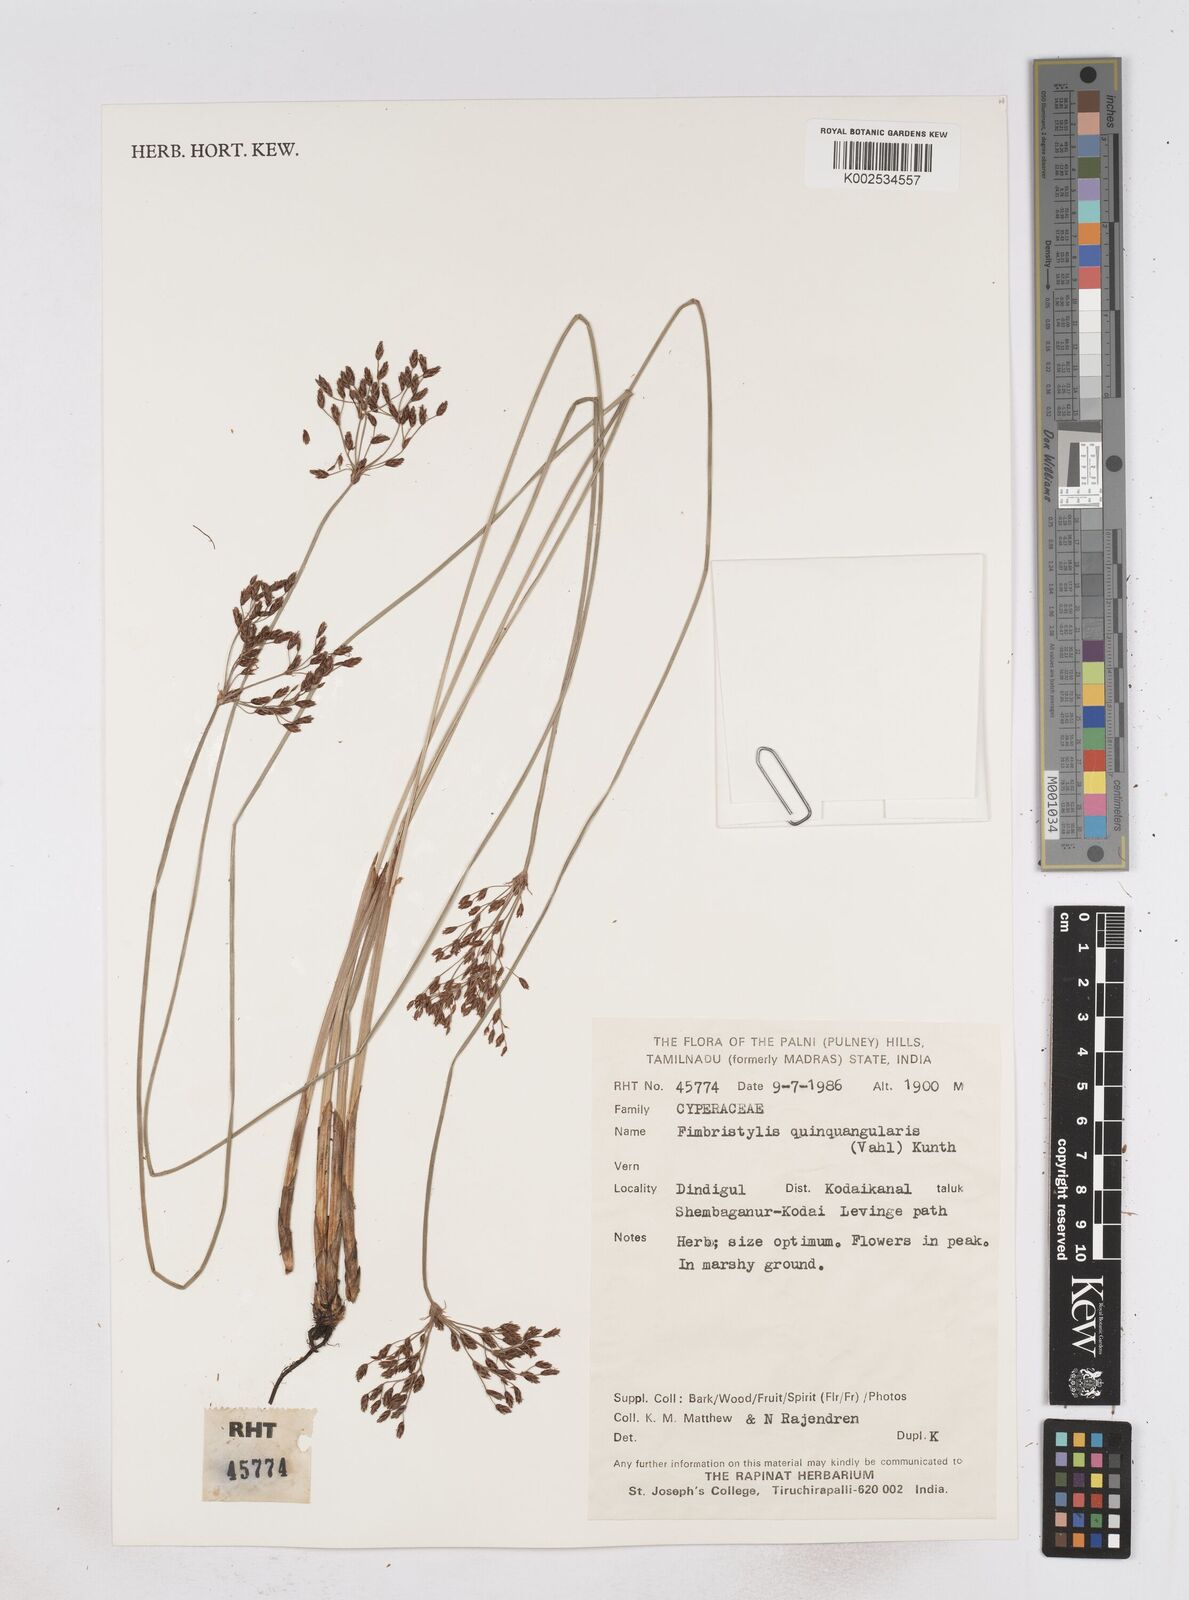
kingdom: Plantae
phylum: Tracheophyta
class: Liliopsida
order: Poales
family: Cyperaceae
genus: Fimbristylis
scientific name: Fimbristylis quinquangularis
